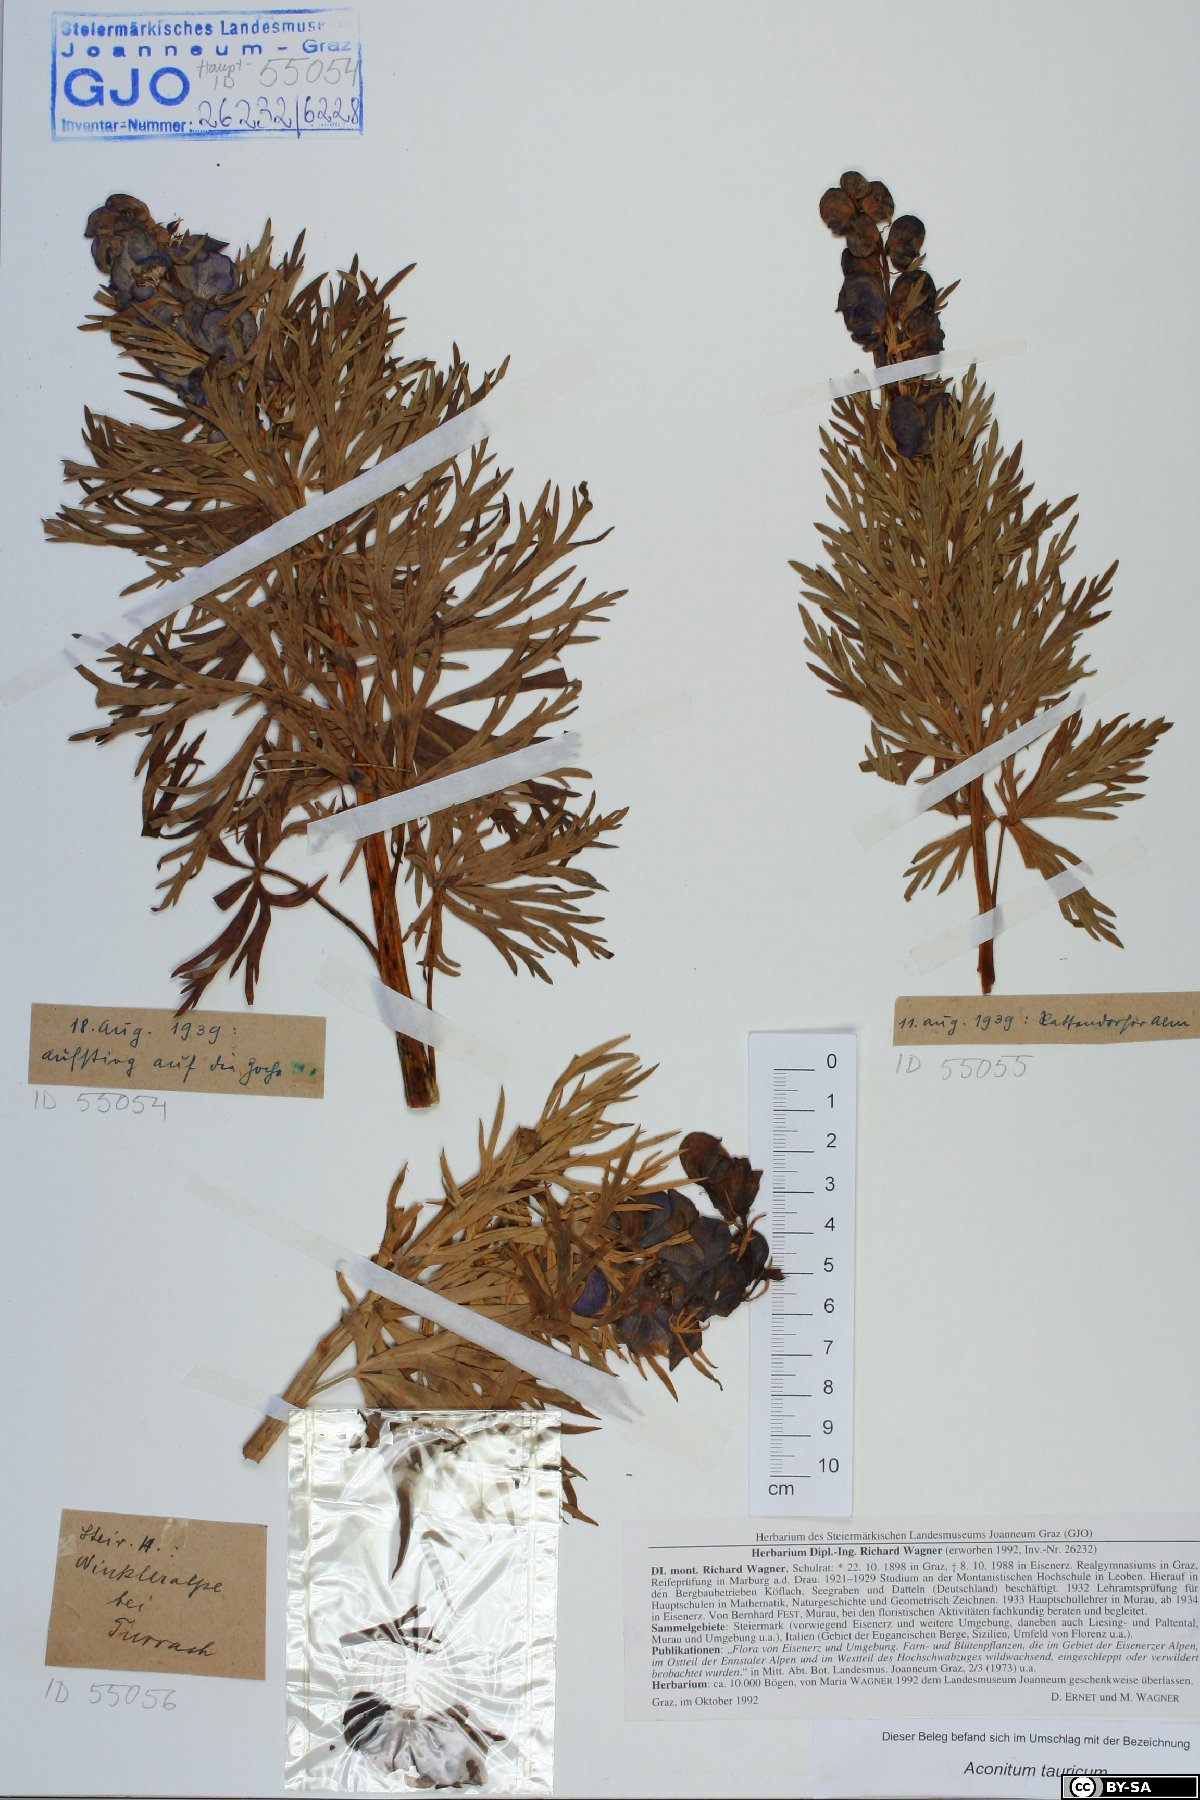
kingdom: Plantae
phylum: Tracheophyta
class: Magnoliopsida
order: Ranunculales
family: Ranunculaceae
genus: Aconitum
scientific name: Aconitum tauricum
